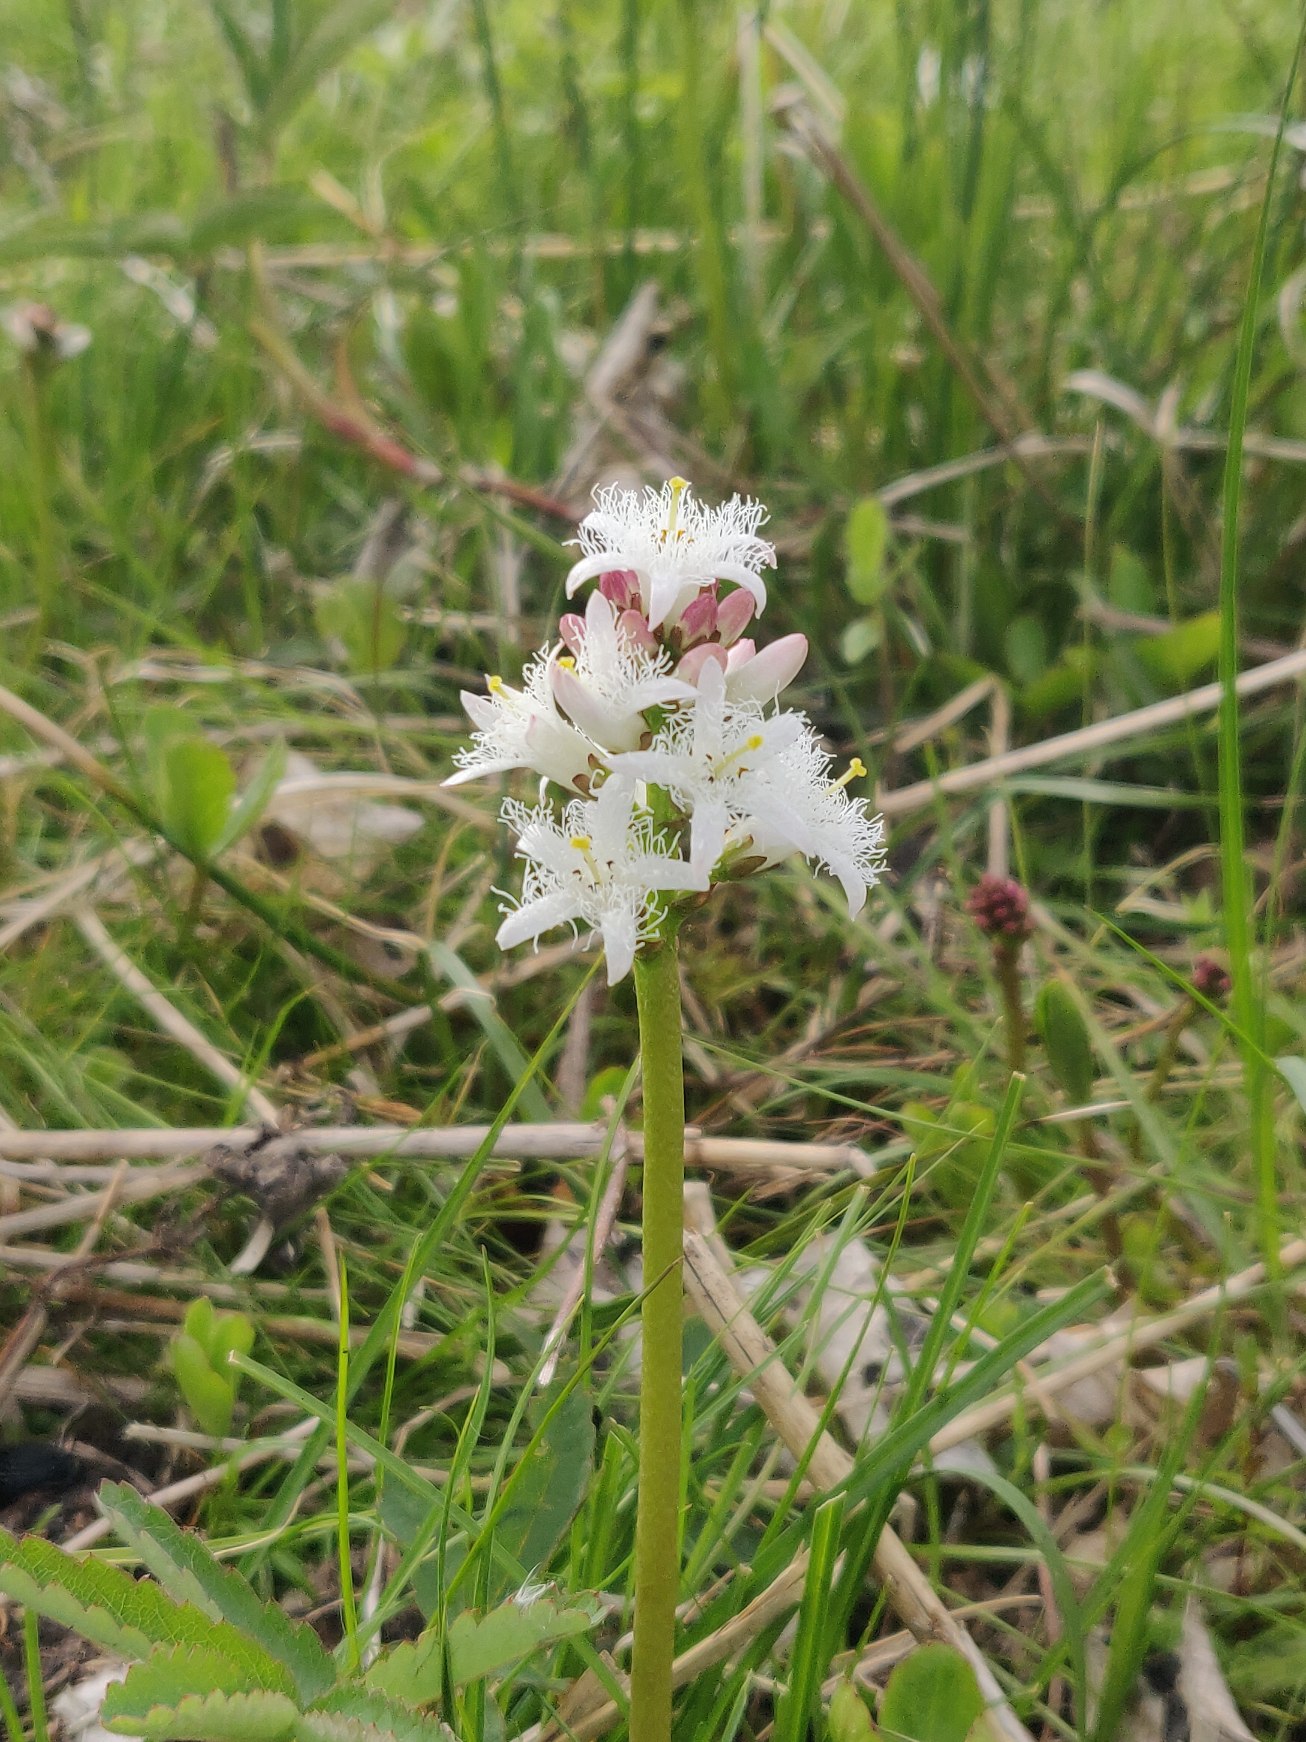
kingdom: Plantae
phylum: Tracheophyta
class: Magnoliopsida
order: Asterales
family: Menyanthaceae
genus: Menyanthes
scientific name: Menyanthes trifoliata
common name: Bukkeblad
